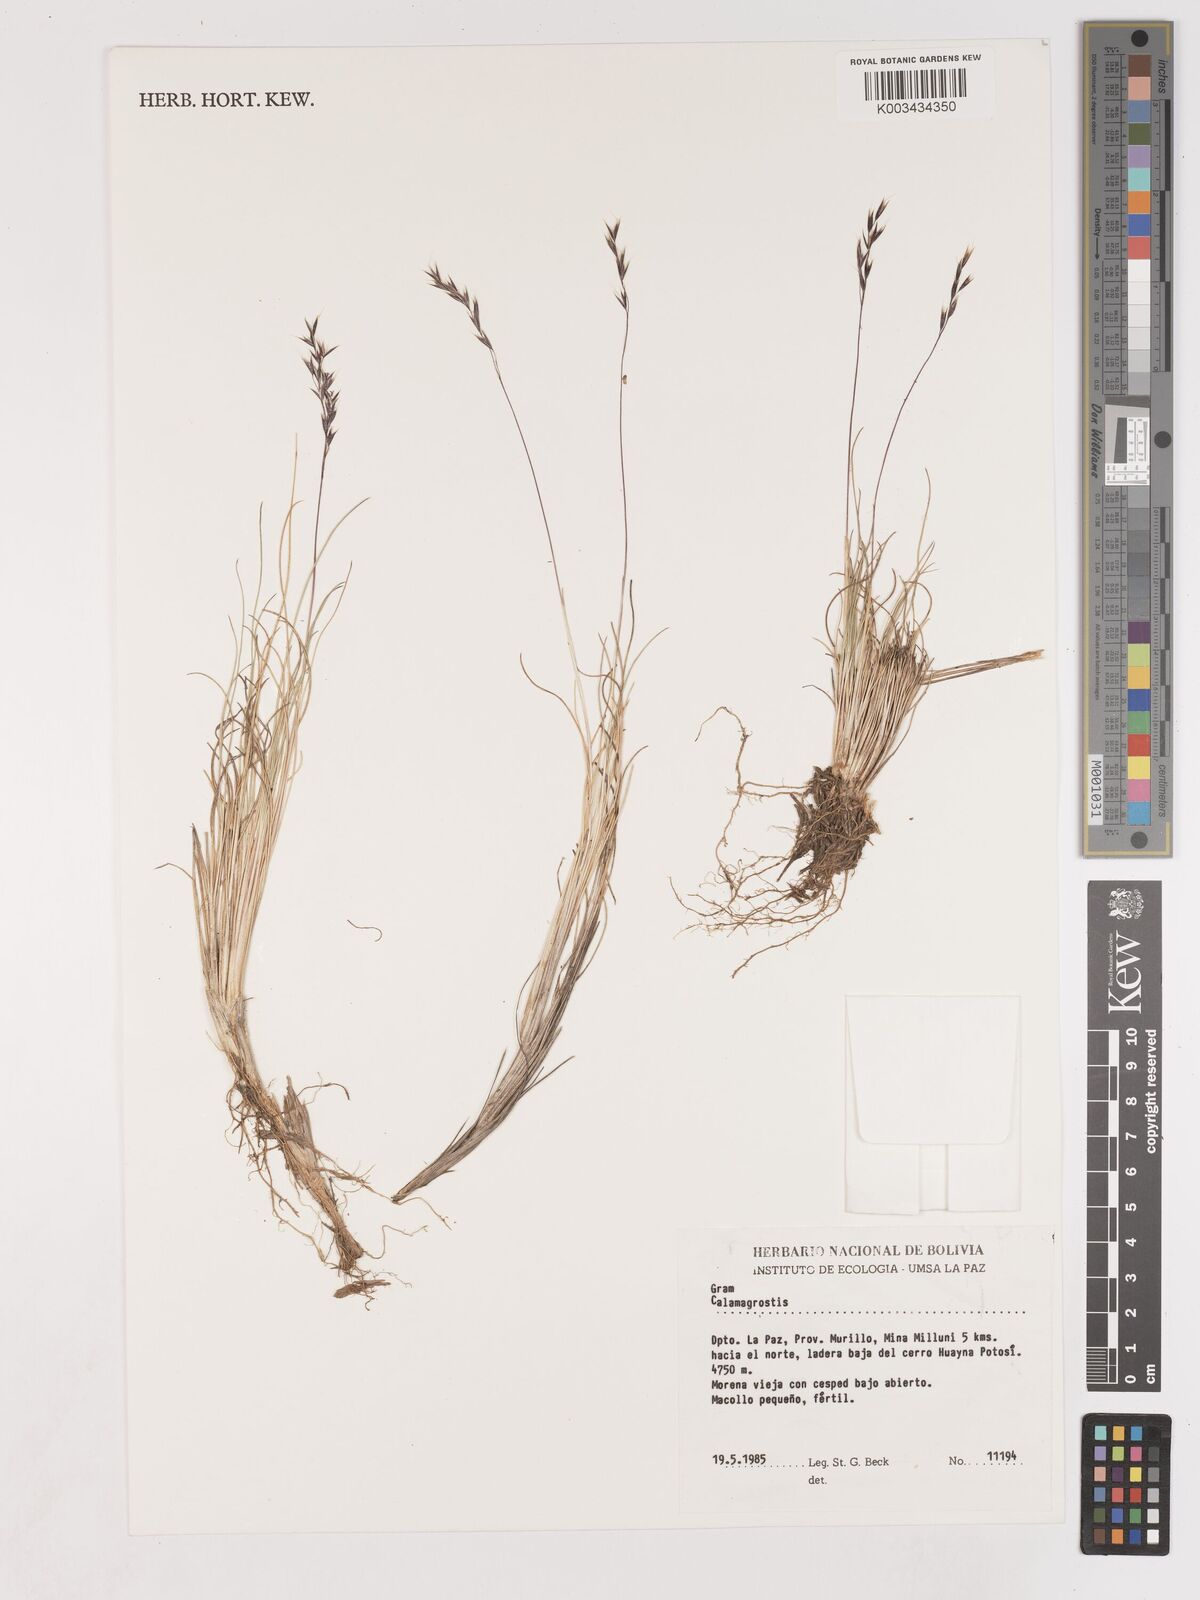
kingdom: Plantae
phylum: Tracheophyta
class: Liliopsida
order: Poales
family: Poaceae
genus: Cinnagrostis
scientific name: Cinnagrostis violacea
